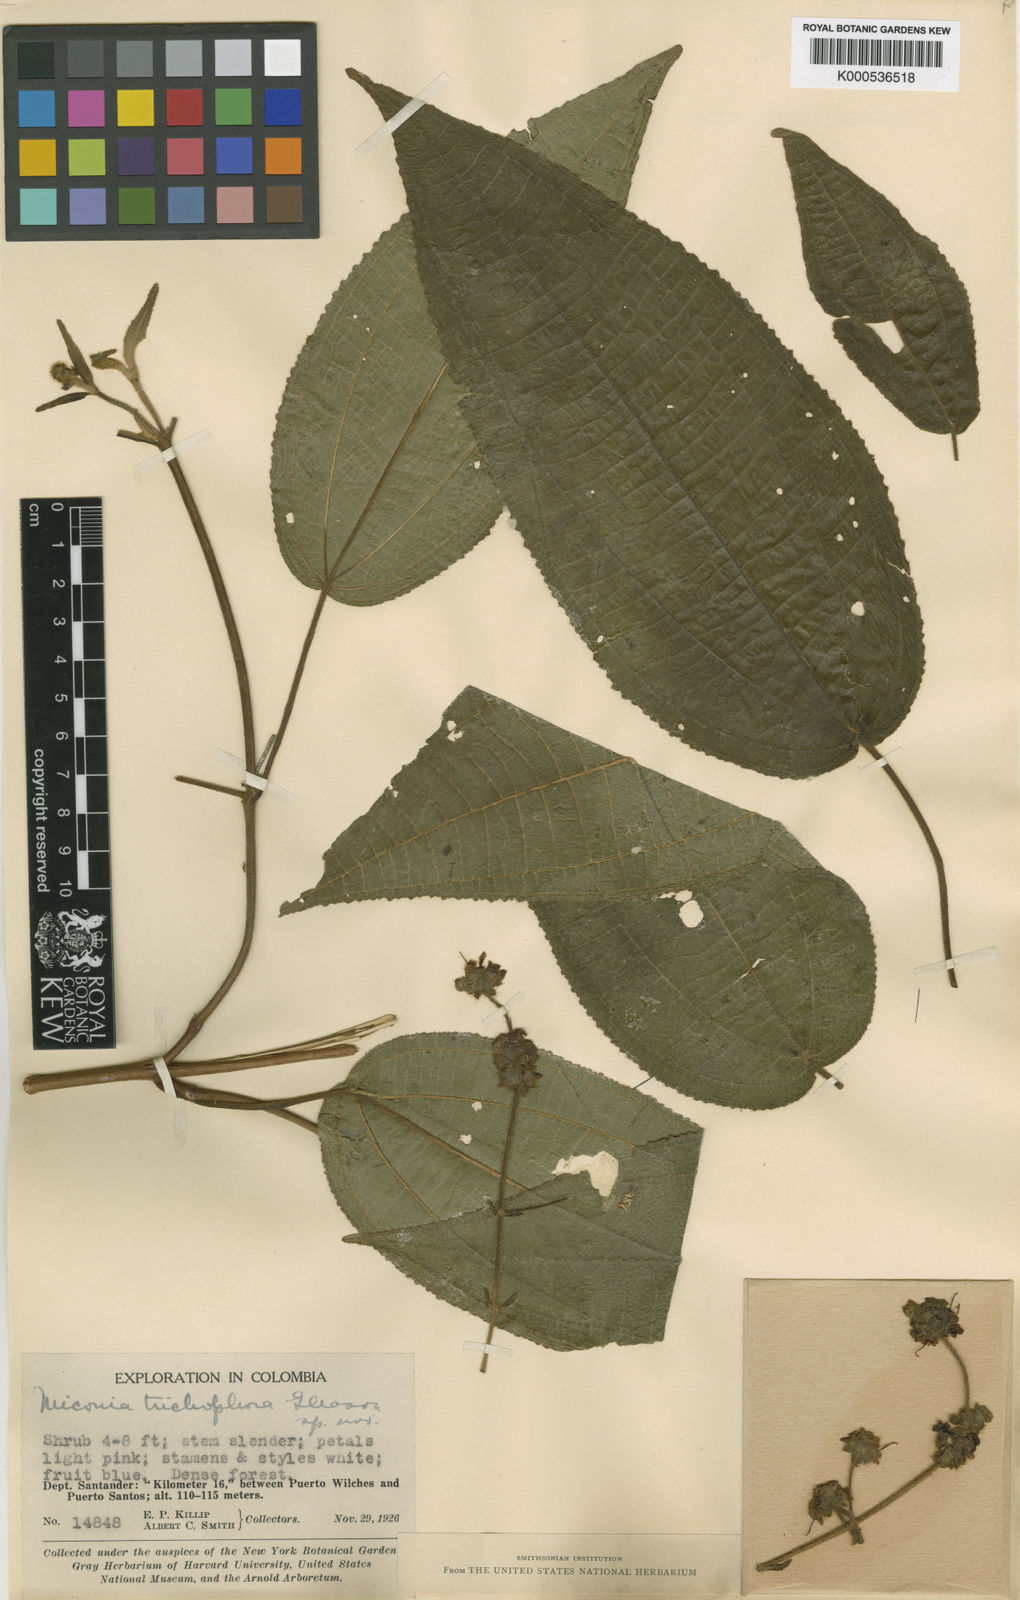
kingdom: Plantae
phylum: Tracheophyta
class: Magnoliopsida
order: Myrtales
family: Melastomataceae
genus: Miconia
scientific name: Miconia trichophora
